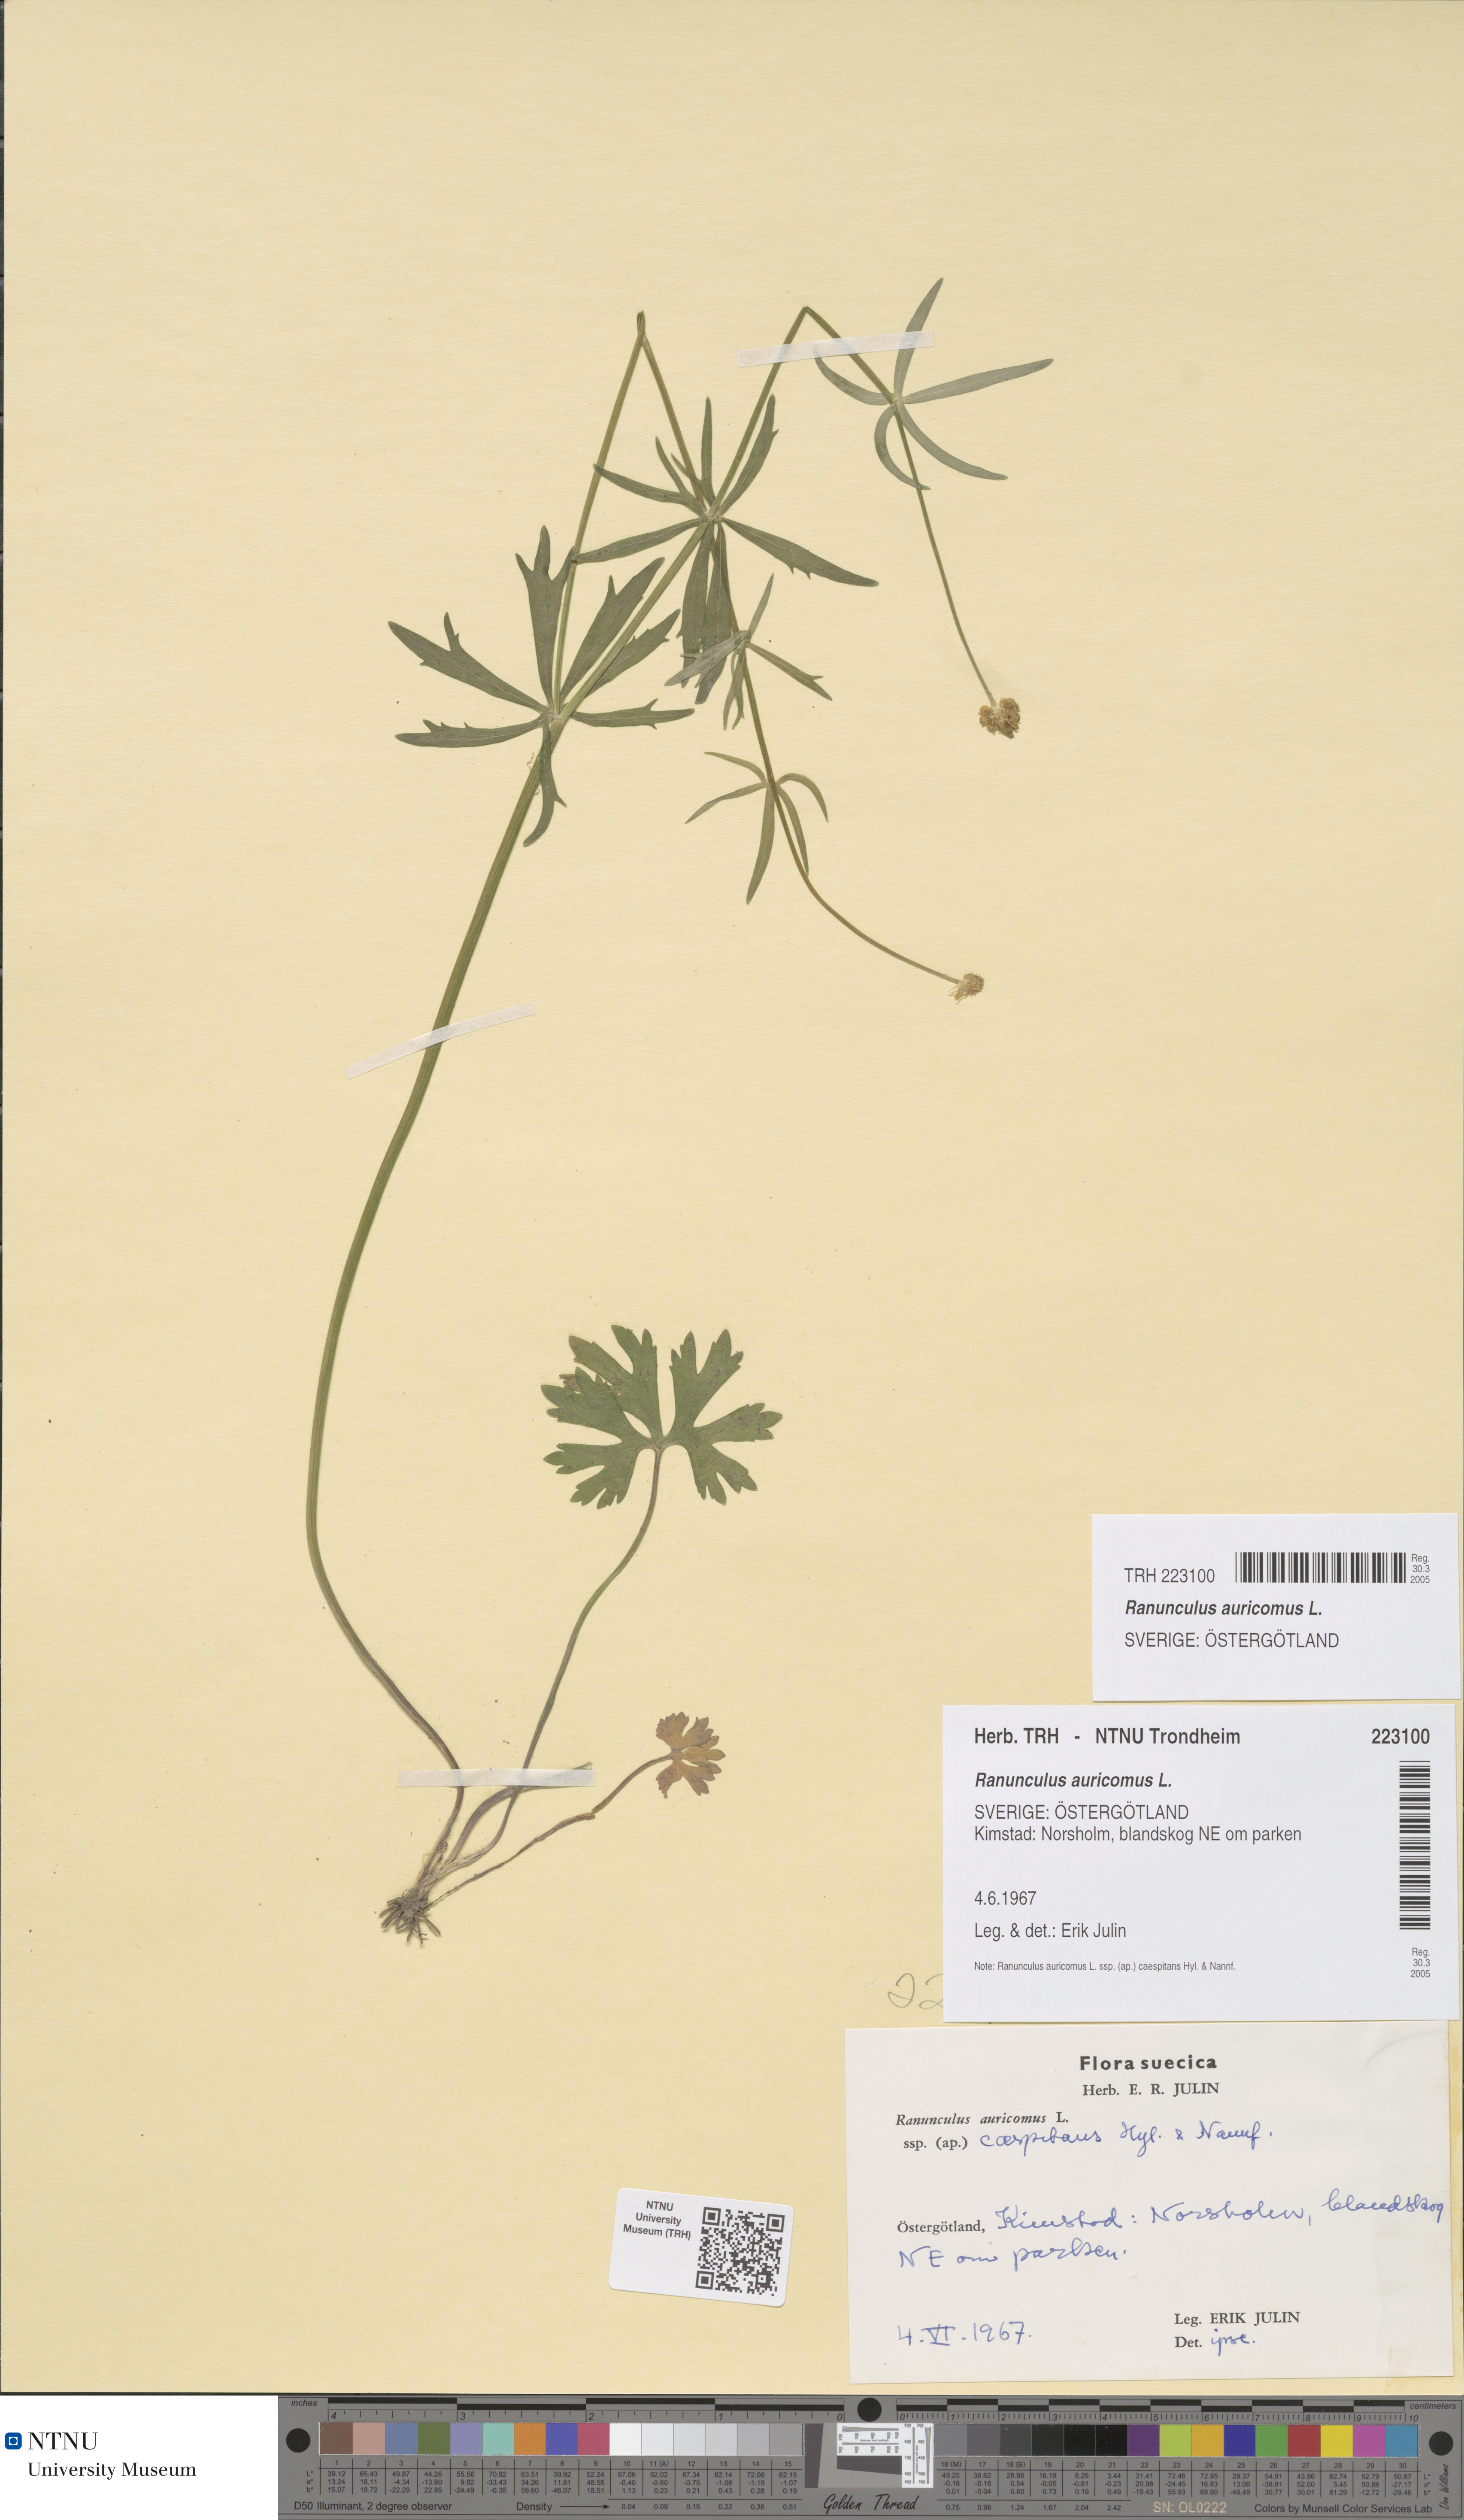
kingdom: Plantae
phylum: Tracheophyta
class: Magnoliopsida
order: Ranunculales
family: Ranunculaceae
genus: Ranunculus
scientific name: Ranunculus auricomus
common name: Goldilocks buttercup
